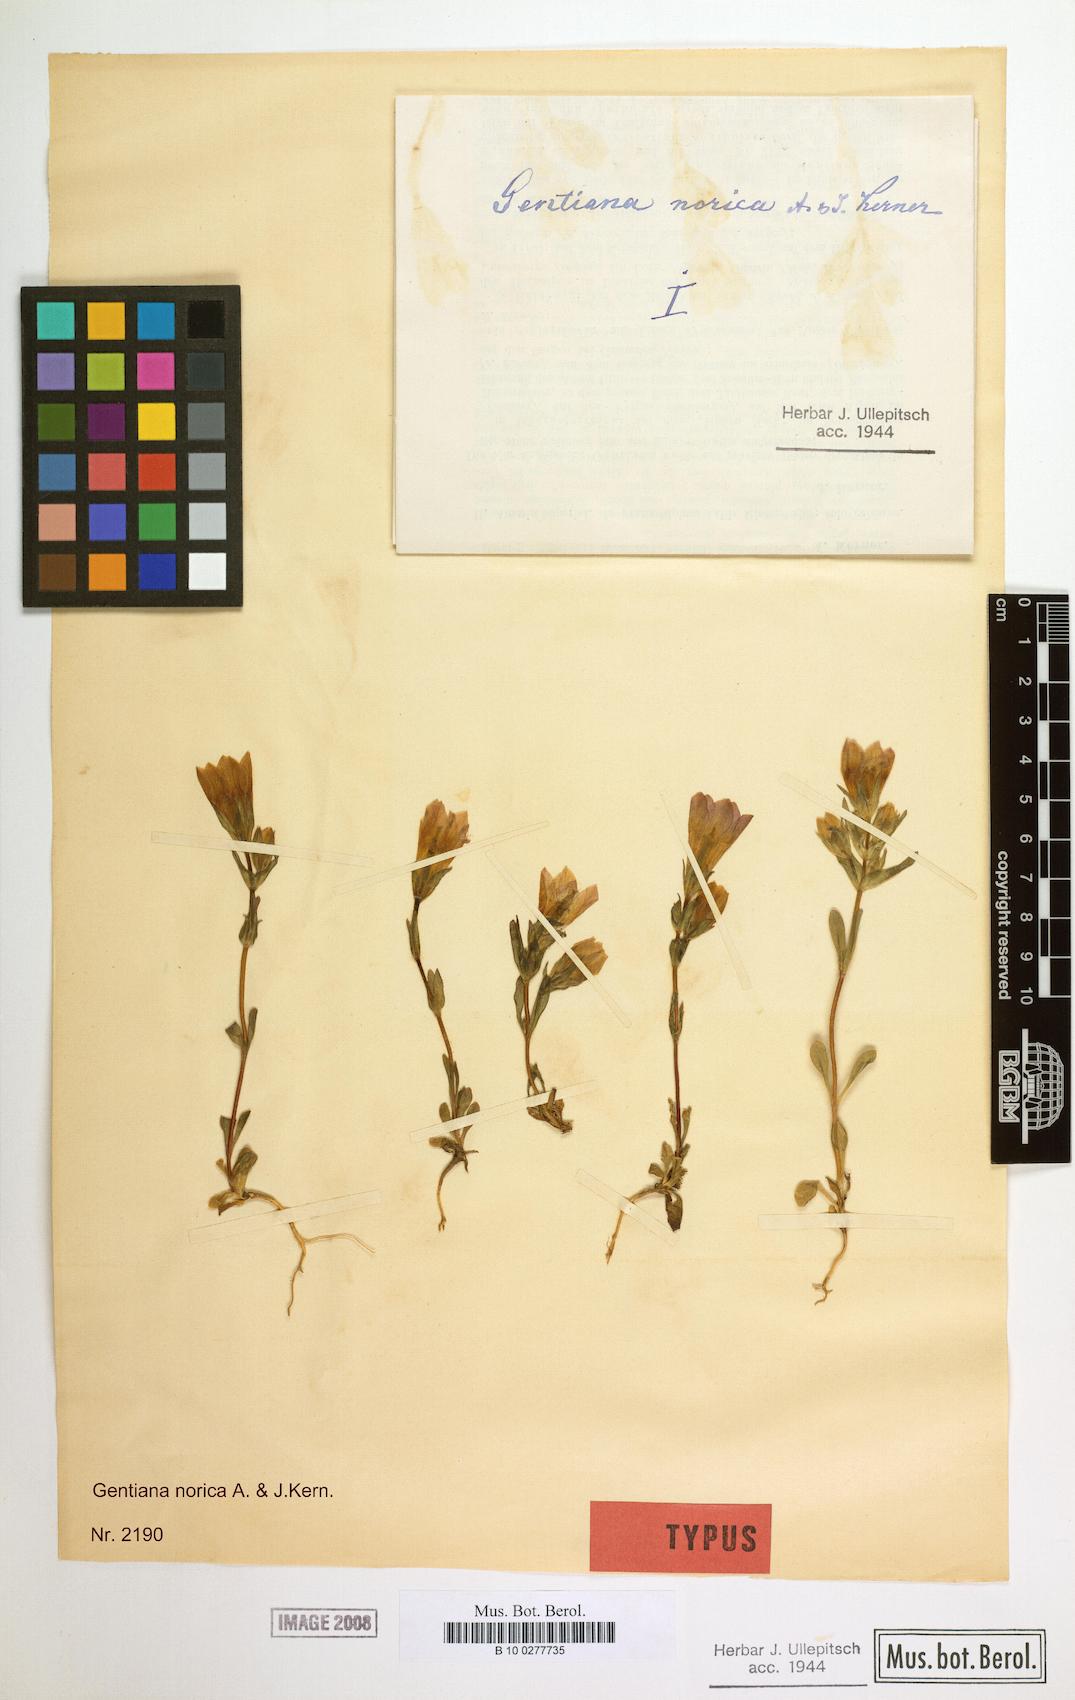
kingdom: Plantae
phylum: Tracheophyta
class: Magnoliopsida
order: Gentianales
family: Gentianaceae
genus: Gentianella
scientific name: Gentianella obtusifolia
